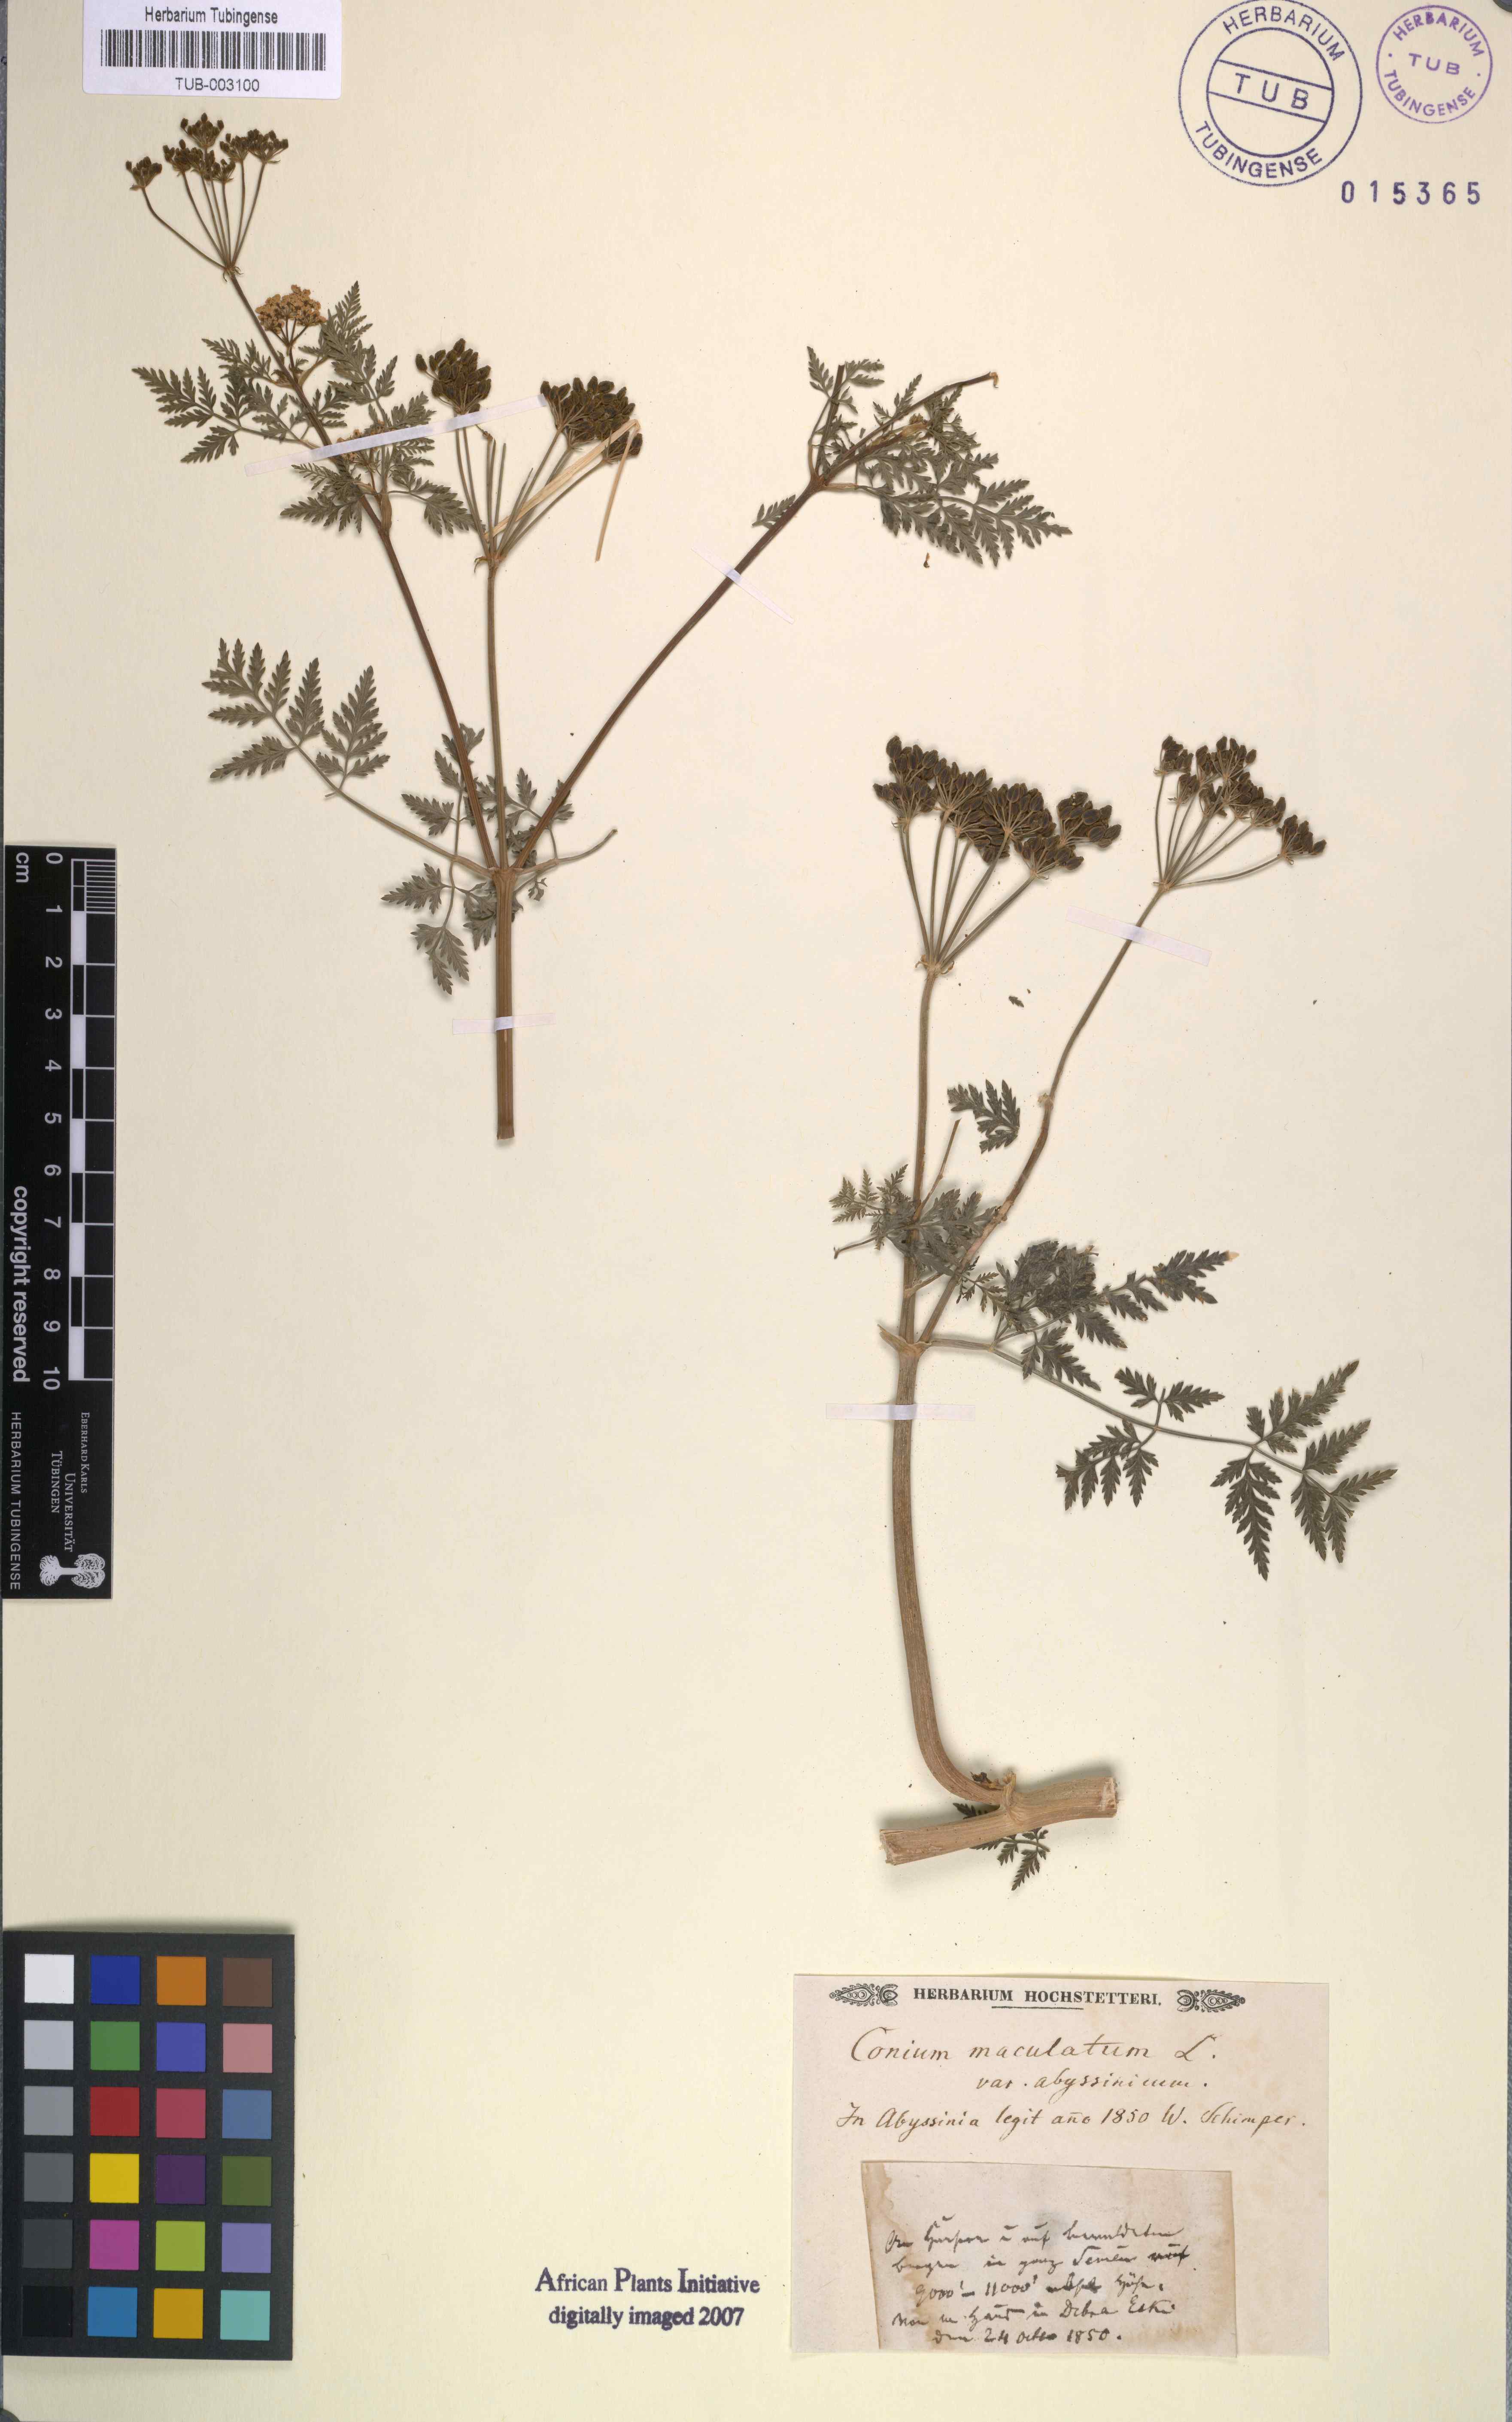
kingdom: Plantae
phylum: Tracheophyta
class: Magnoliopsida
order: Apiales
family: Apiaceae
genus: Conium
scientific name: Conium maculatum
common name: Hemlock
